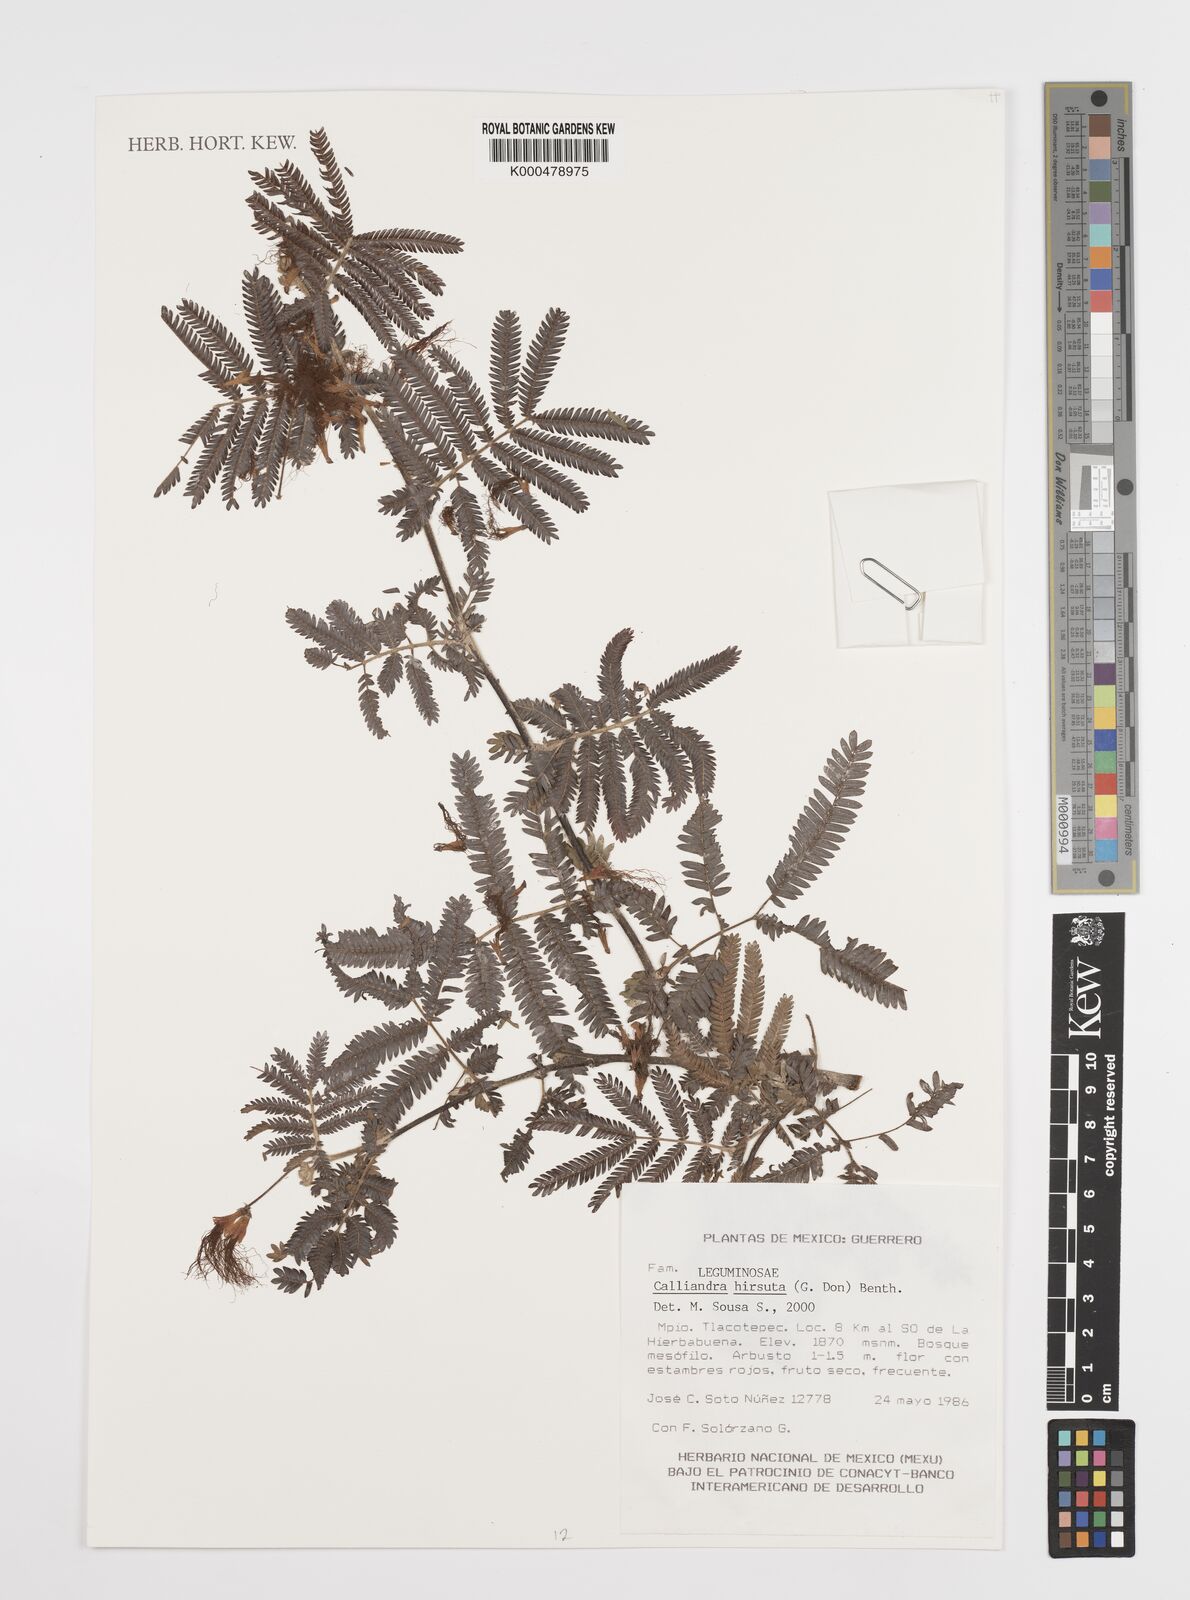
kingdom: Plantae
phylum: Tracheophyta
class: Magnoliopsida
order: Fabales
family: Fabaceae
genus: Calliandra
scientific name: Calliandra hirsuta
